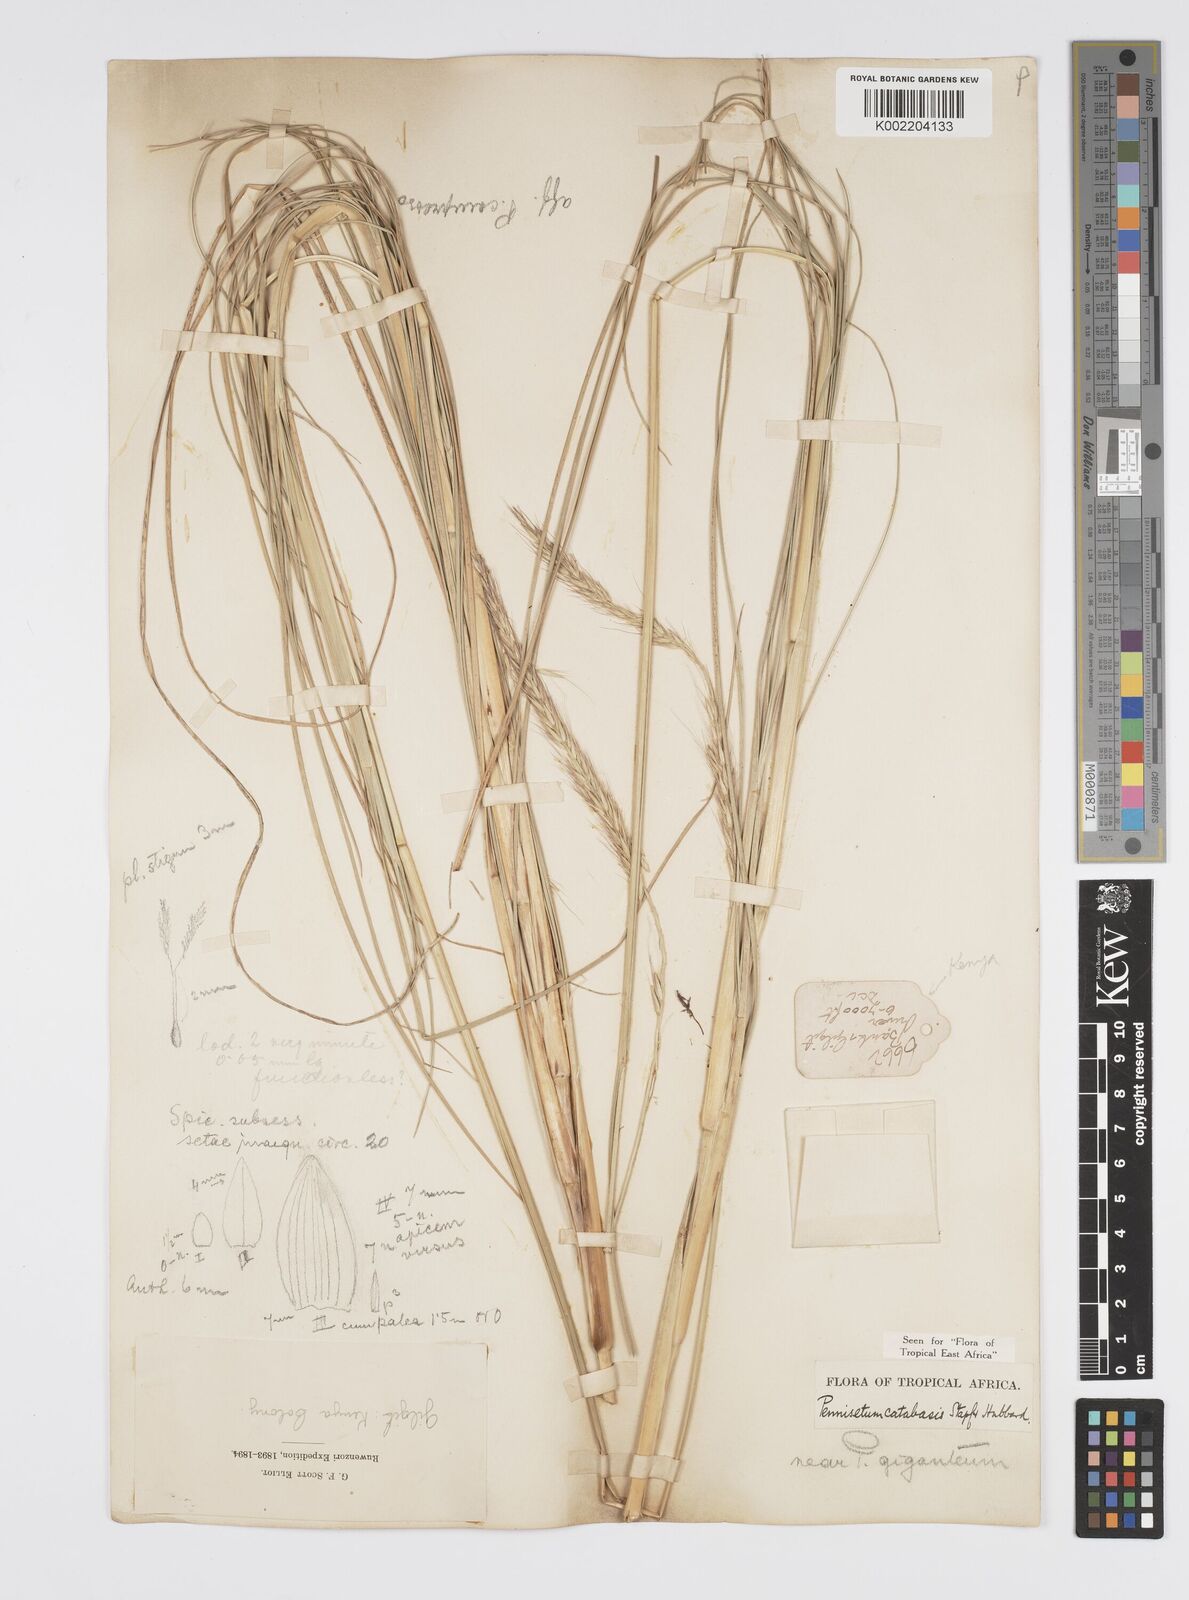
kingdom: Plantae
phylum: Tracheophyta
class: Liliopsida
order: Poales
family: Poaceae
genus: Cenchrus
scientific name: Cenchrus Pennisetum spec
